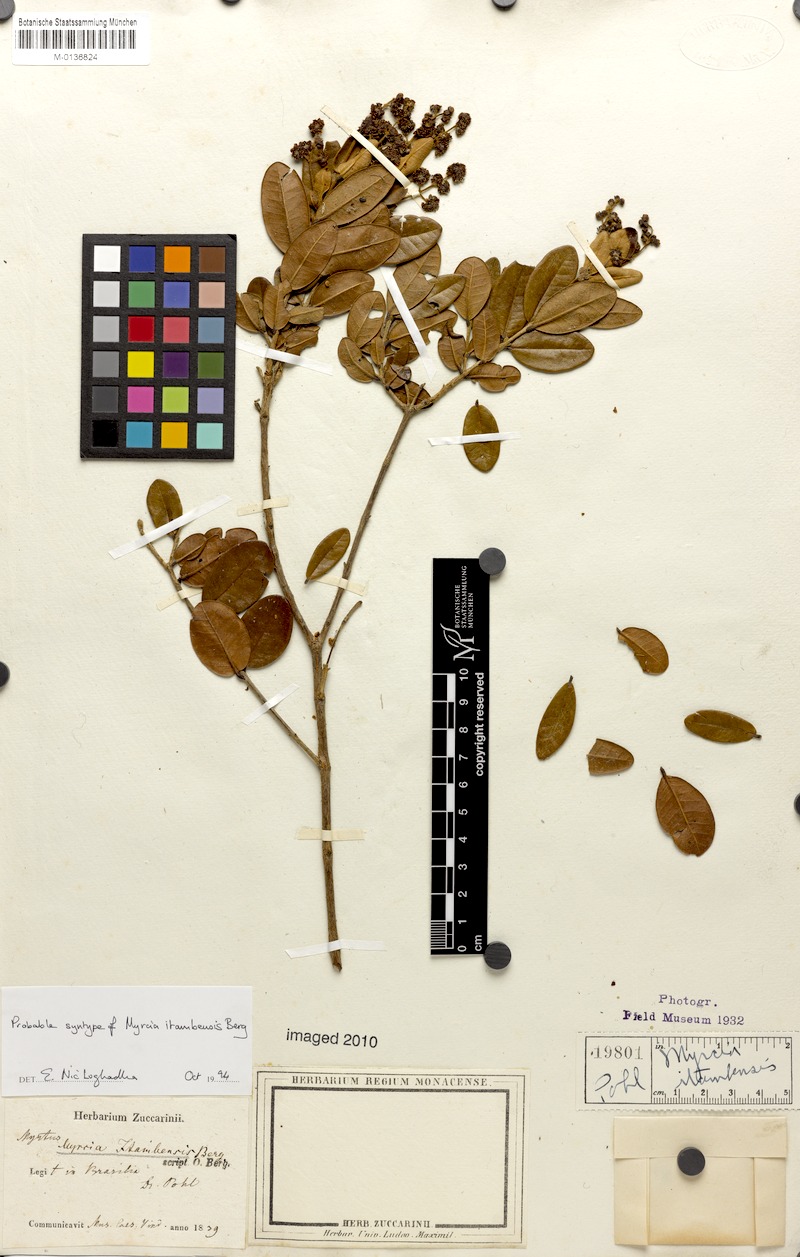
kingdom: Plantae
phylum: Tracheophyta
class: Magnoliopsida
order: Myrtales
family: Myrtaceae
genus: Myrcia
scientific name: Myrcia retorta
